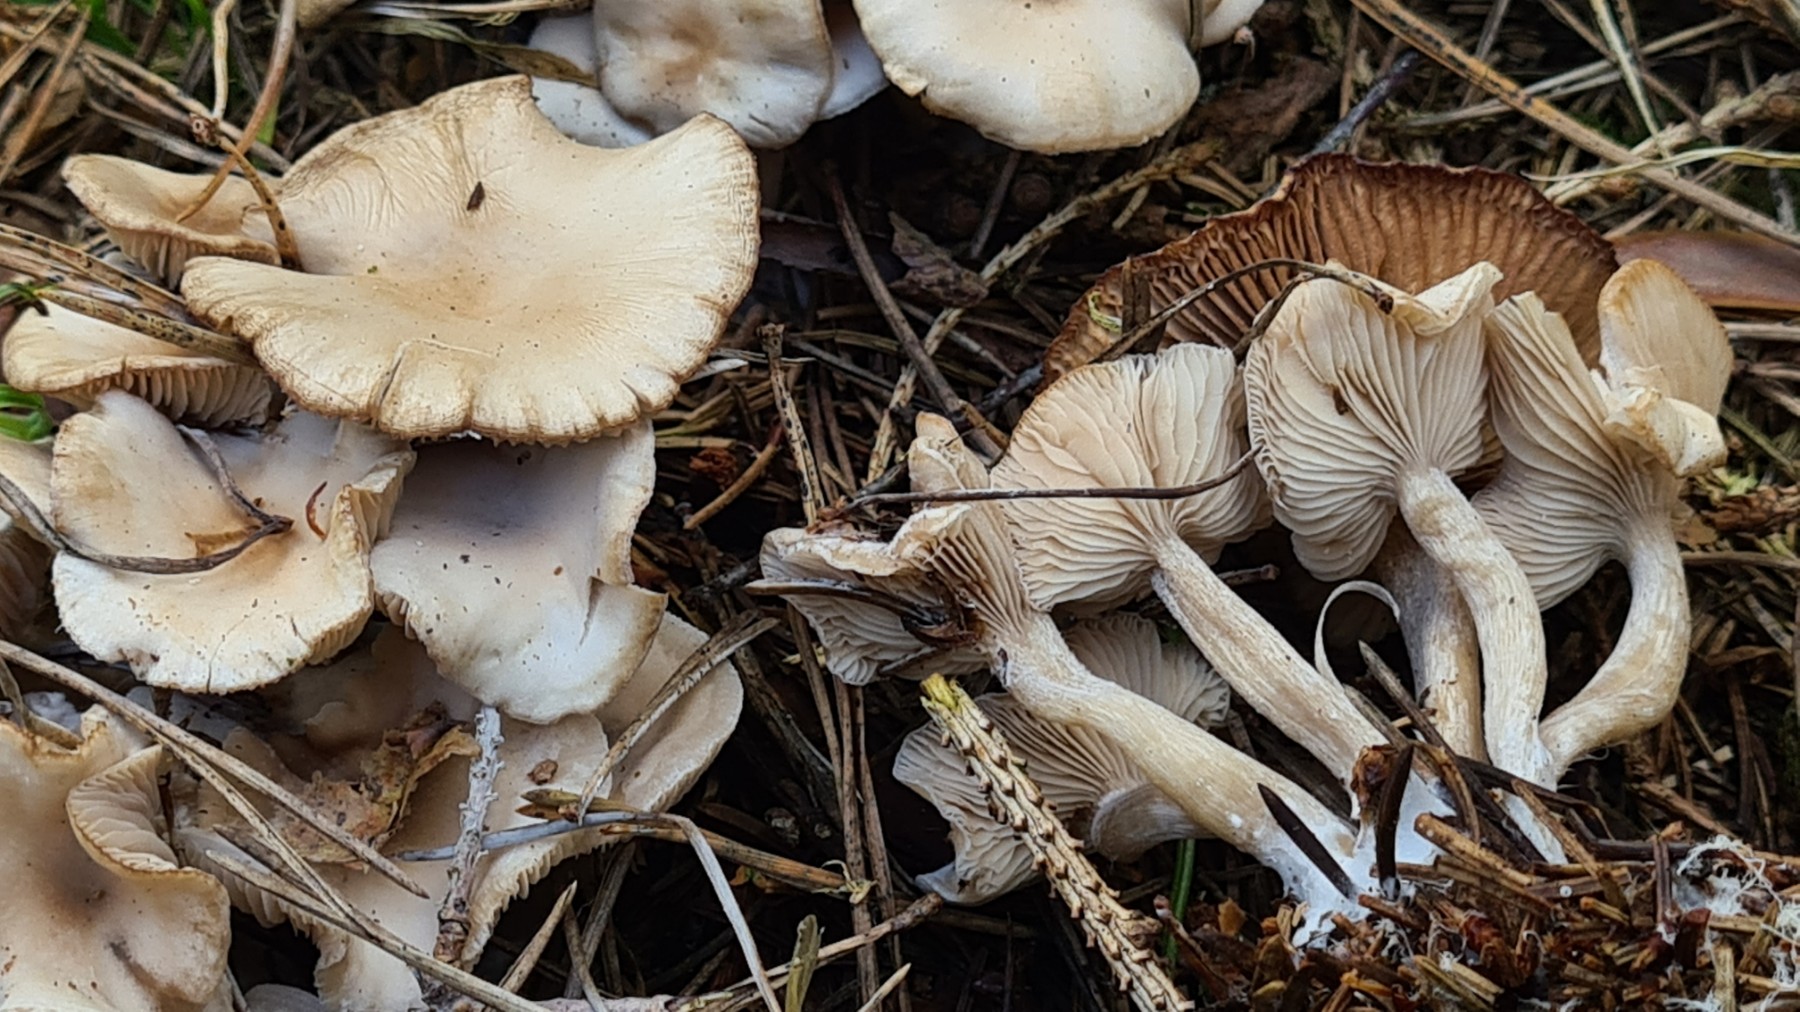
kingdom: Fungi
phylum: Basidiomycota
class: Agaricomycetes
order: Agaricales
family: Tricholomataceae
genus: Clitocybe
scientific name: Clitocybe
